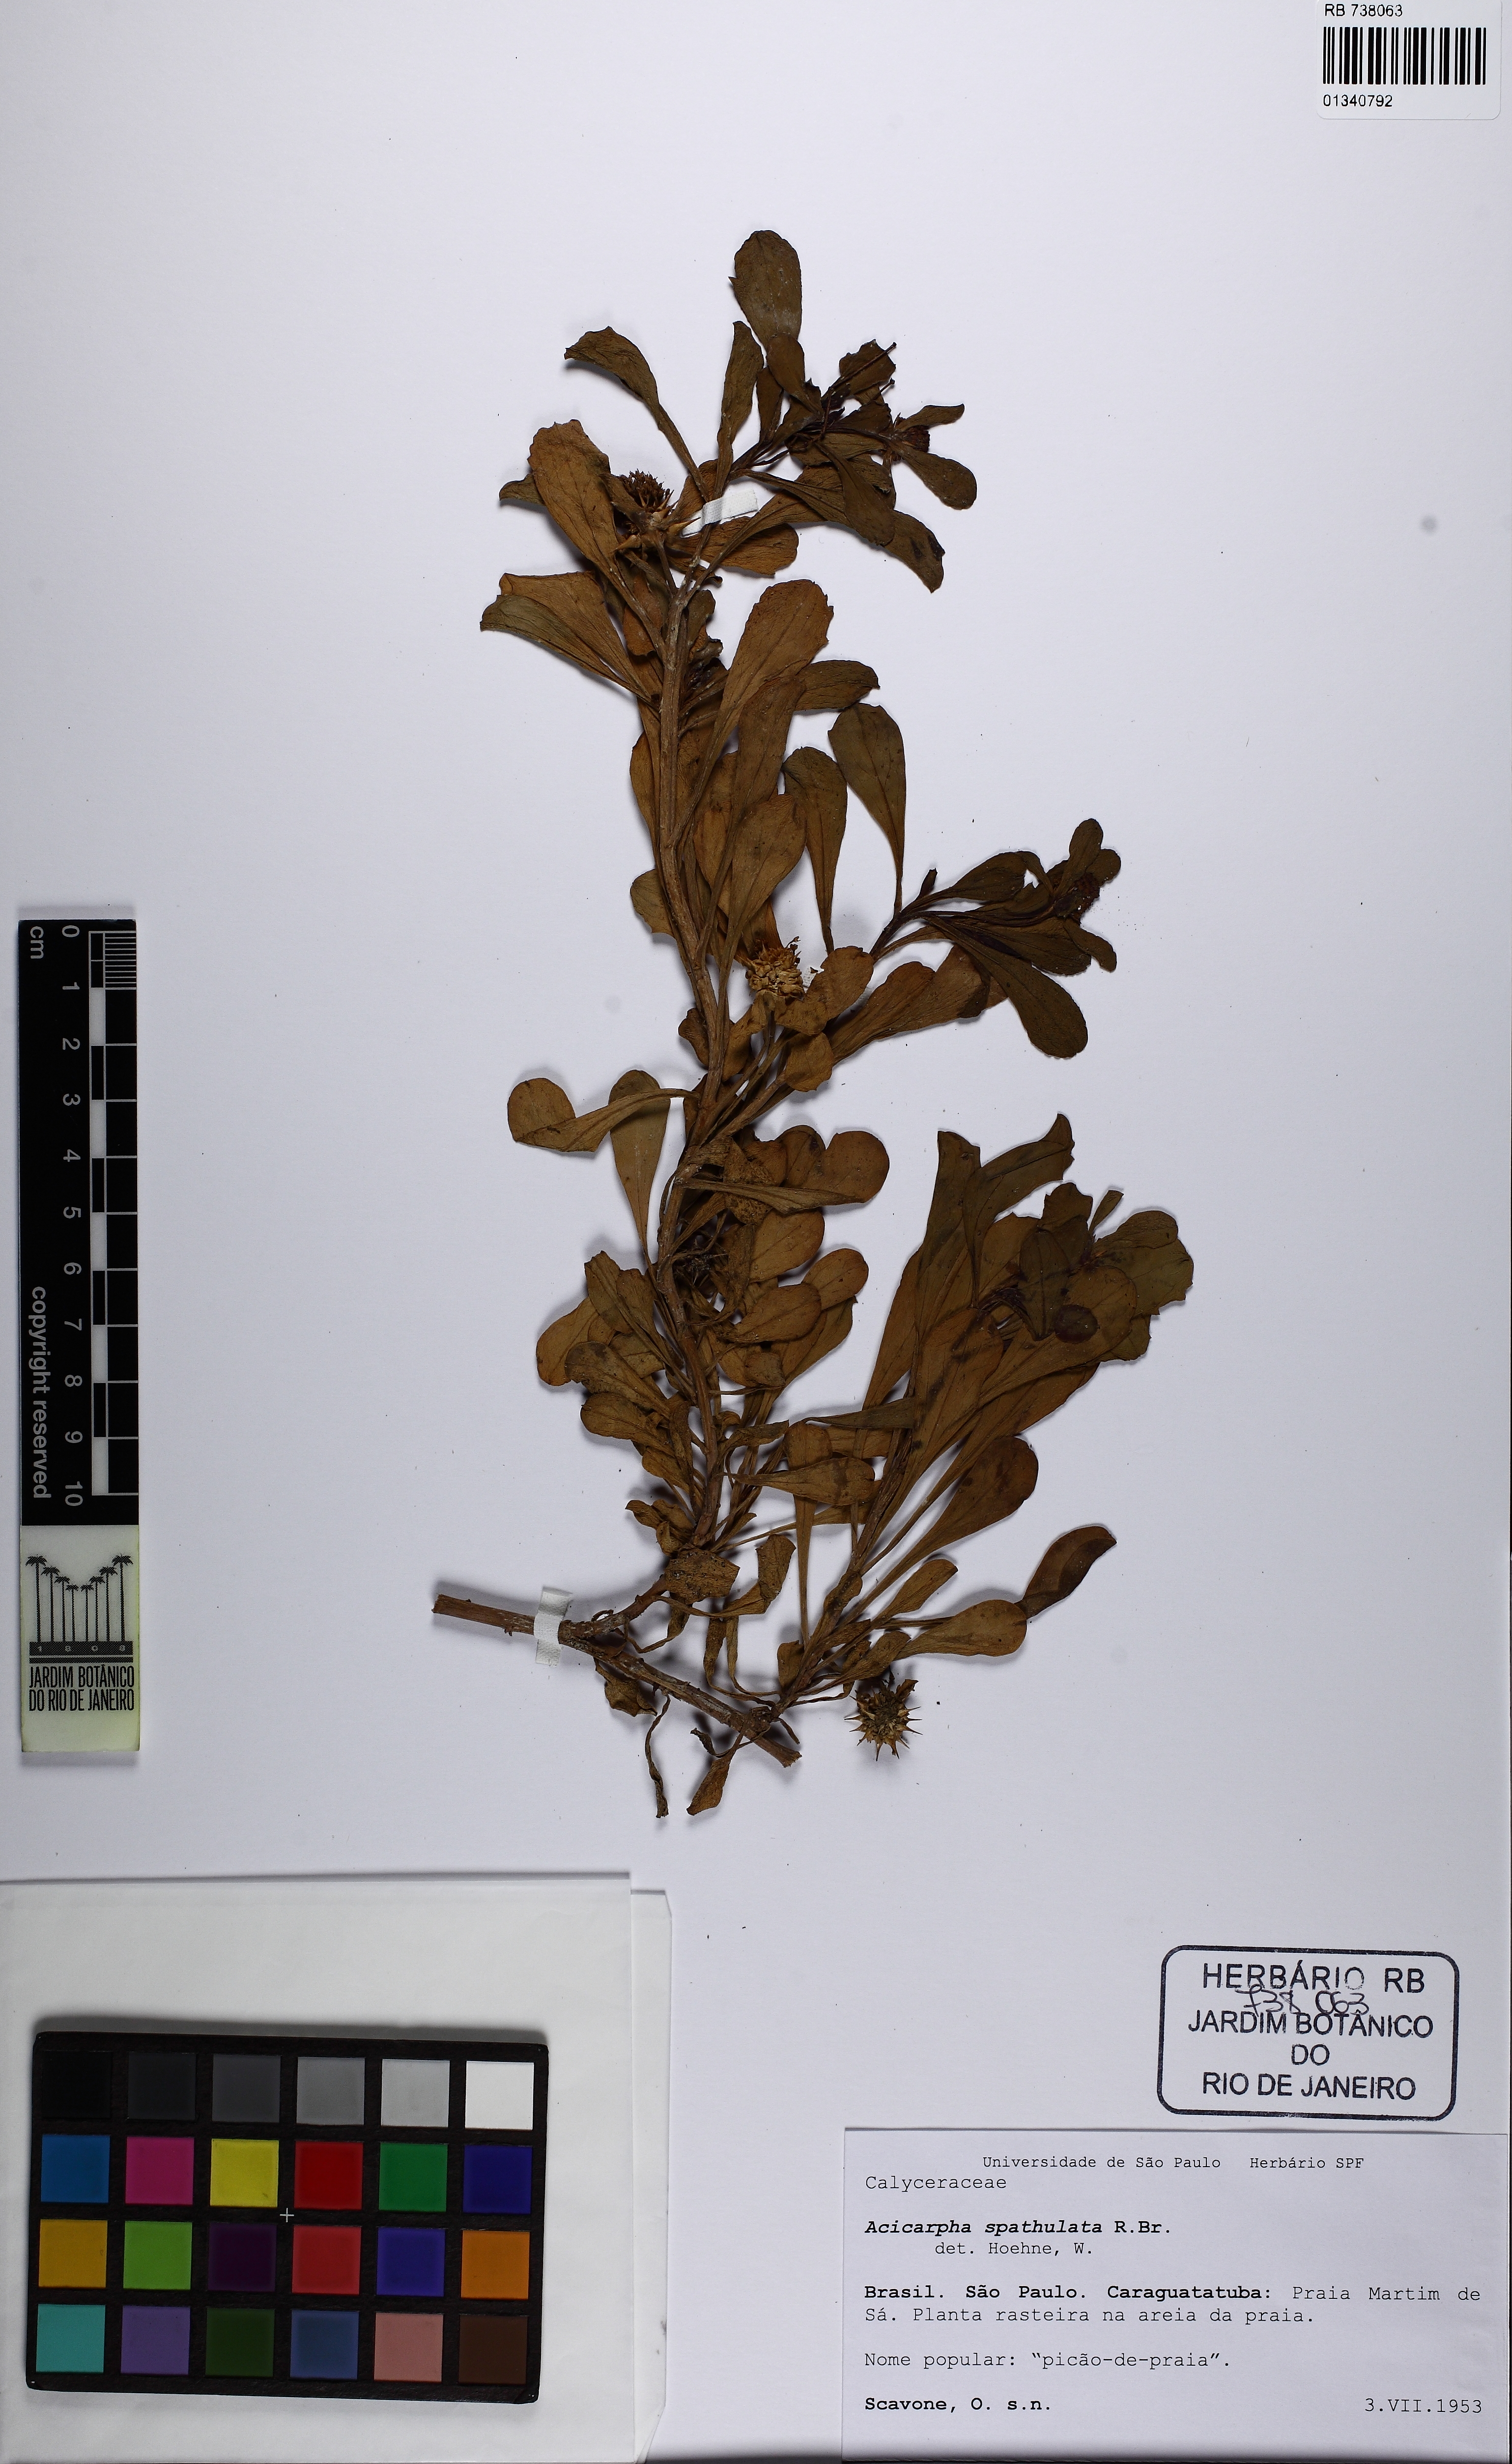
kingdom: Plantae
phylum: Tracheophyta
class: Magnoliopsida
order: Asterales
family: Calyceraceae
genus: Acicarpha
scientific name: Acicarpha spathulata
